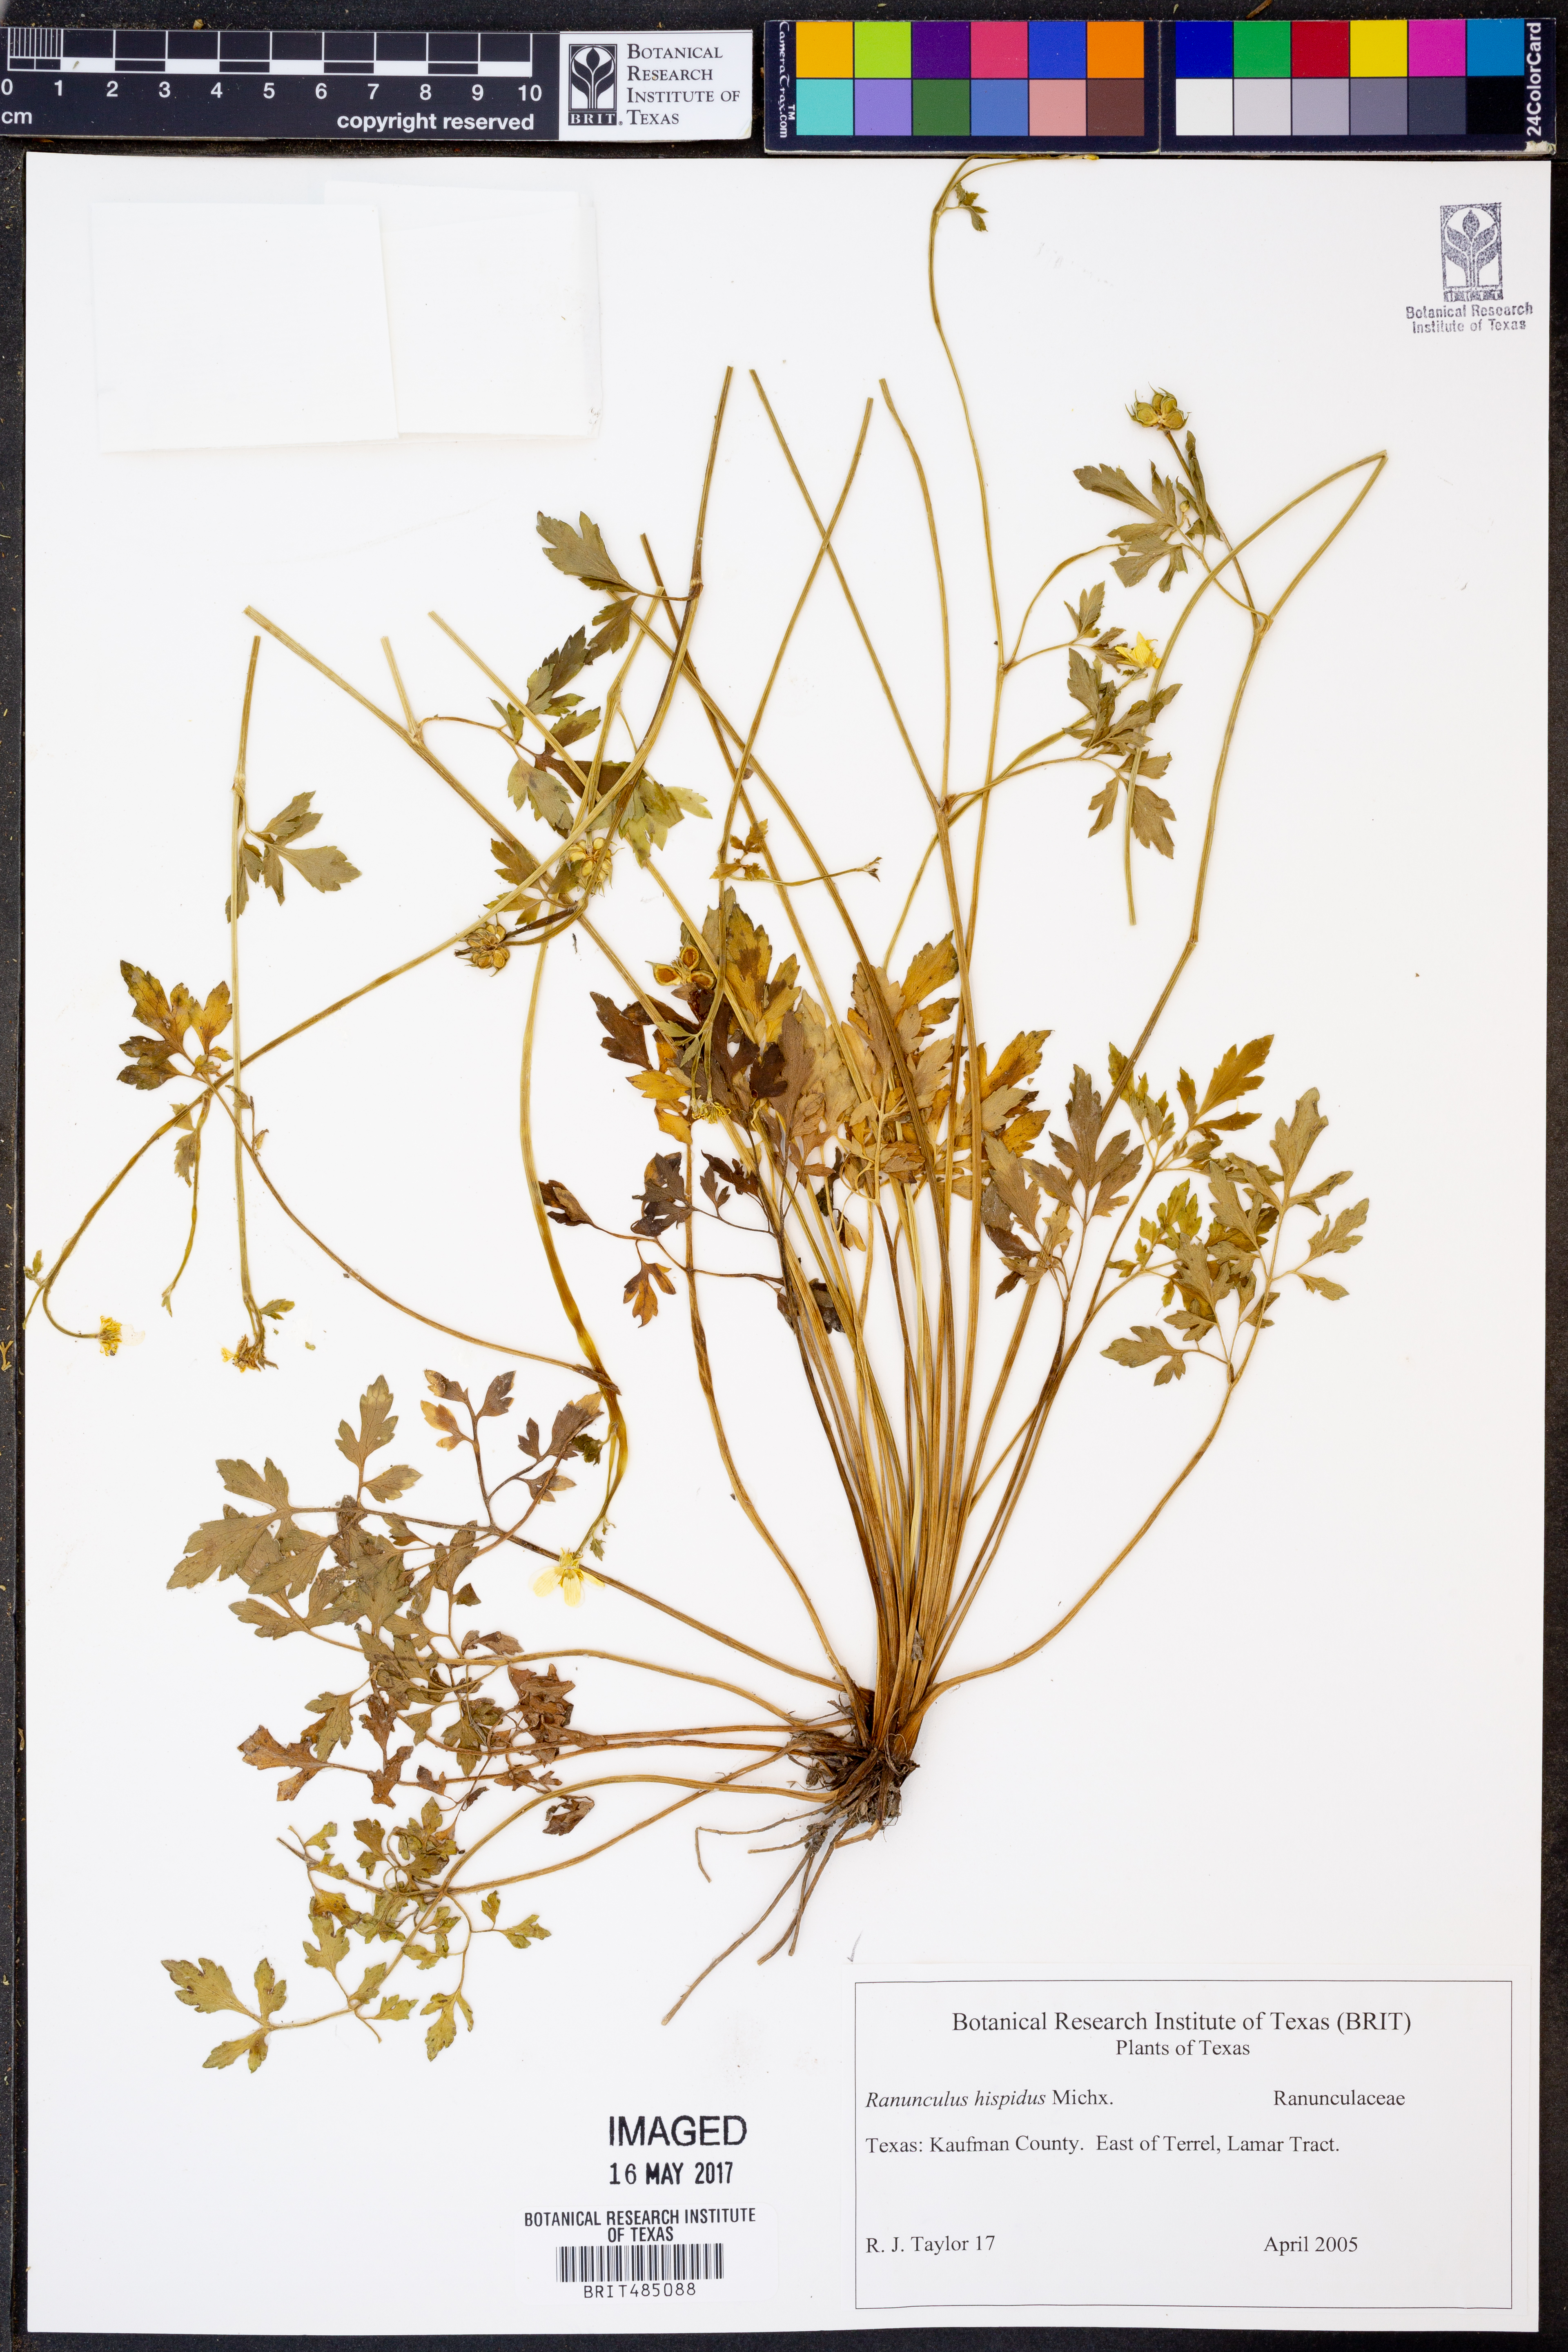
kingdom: Plantae
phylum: Tracheophyta
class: Magnoliopsida
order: Ranunculales
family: Ranunculaceae
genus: Ranunculus
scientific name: Ranunculus hispidus
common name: Bristly buttercup
